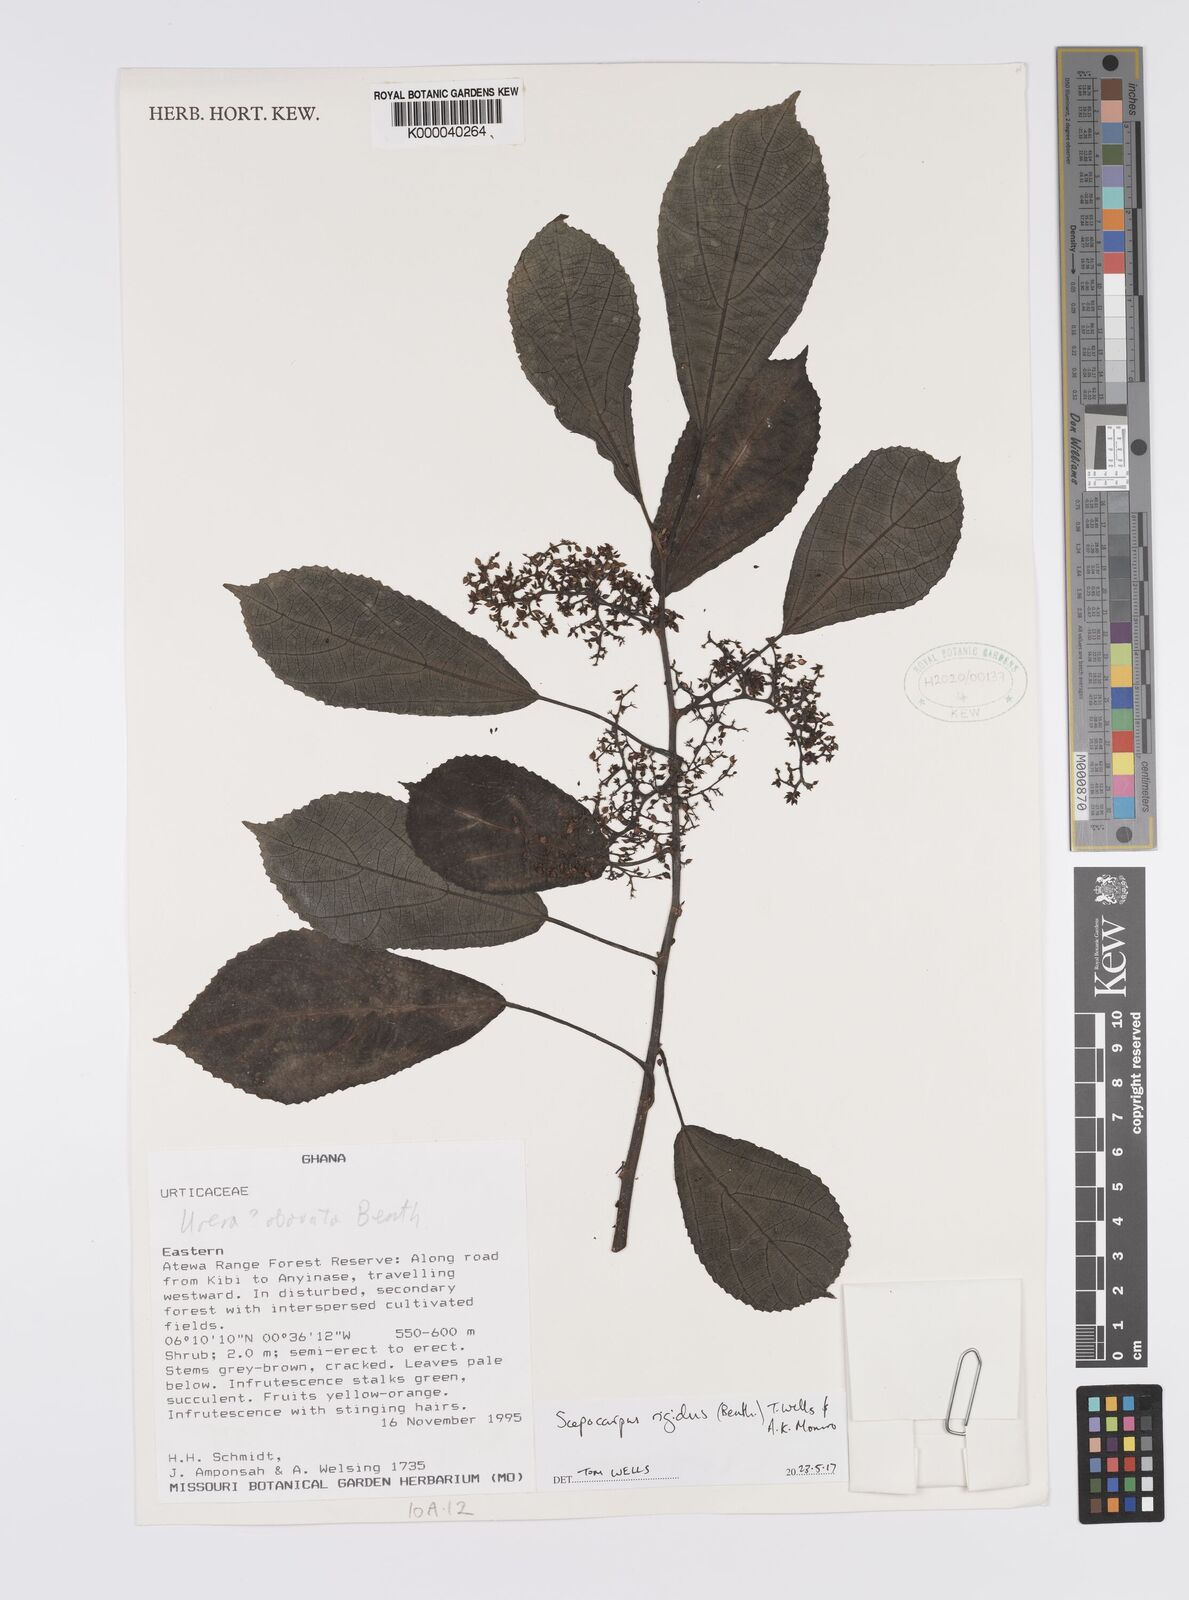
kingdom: Plantae
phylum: Tracheophyta
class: Magnoliopsida
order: Rosales
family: Urticaceae
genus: Scepocarpus
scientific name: Scepocarpus
